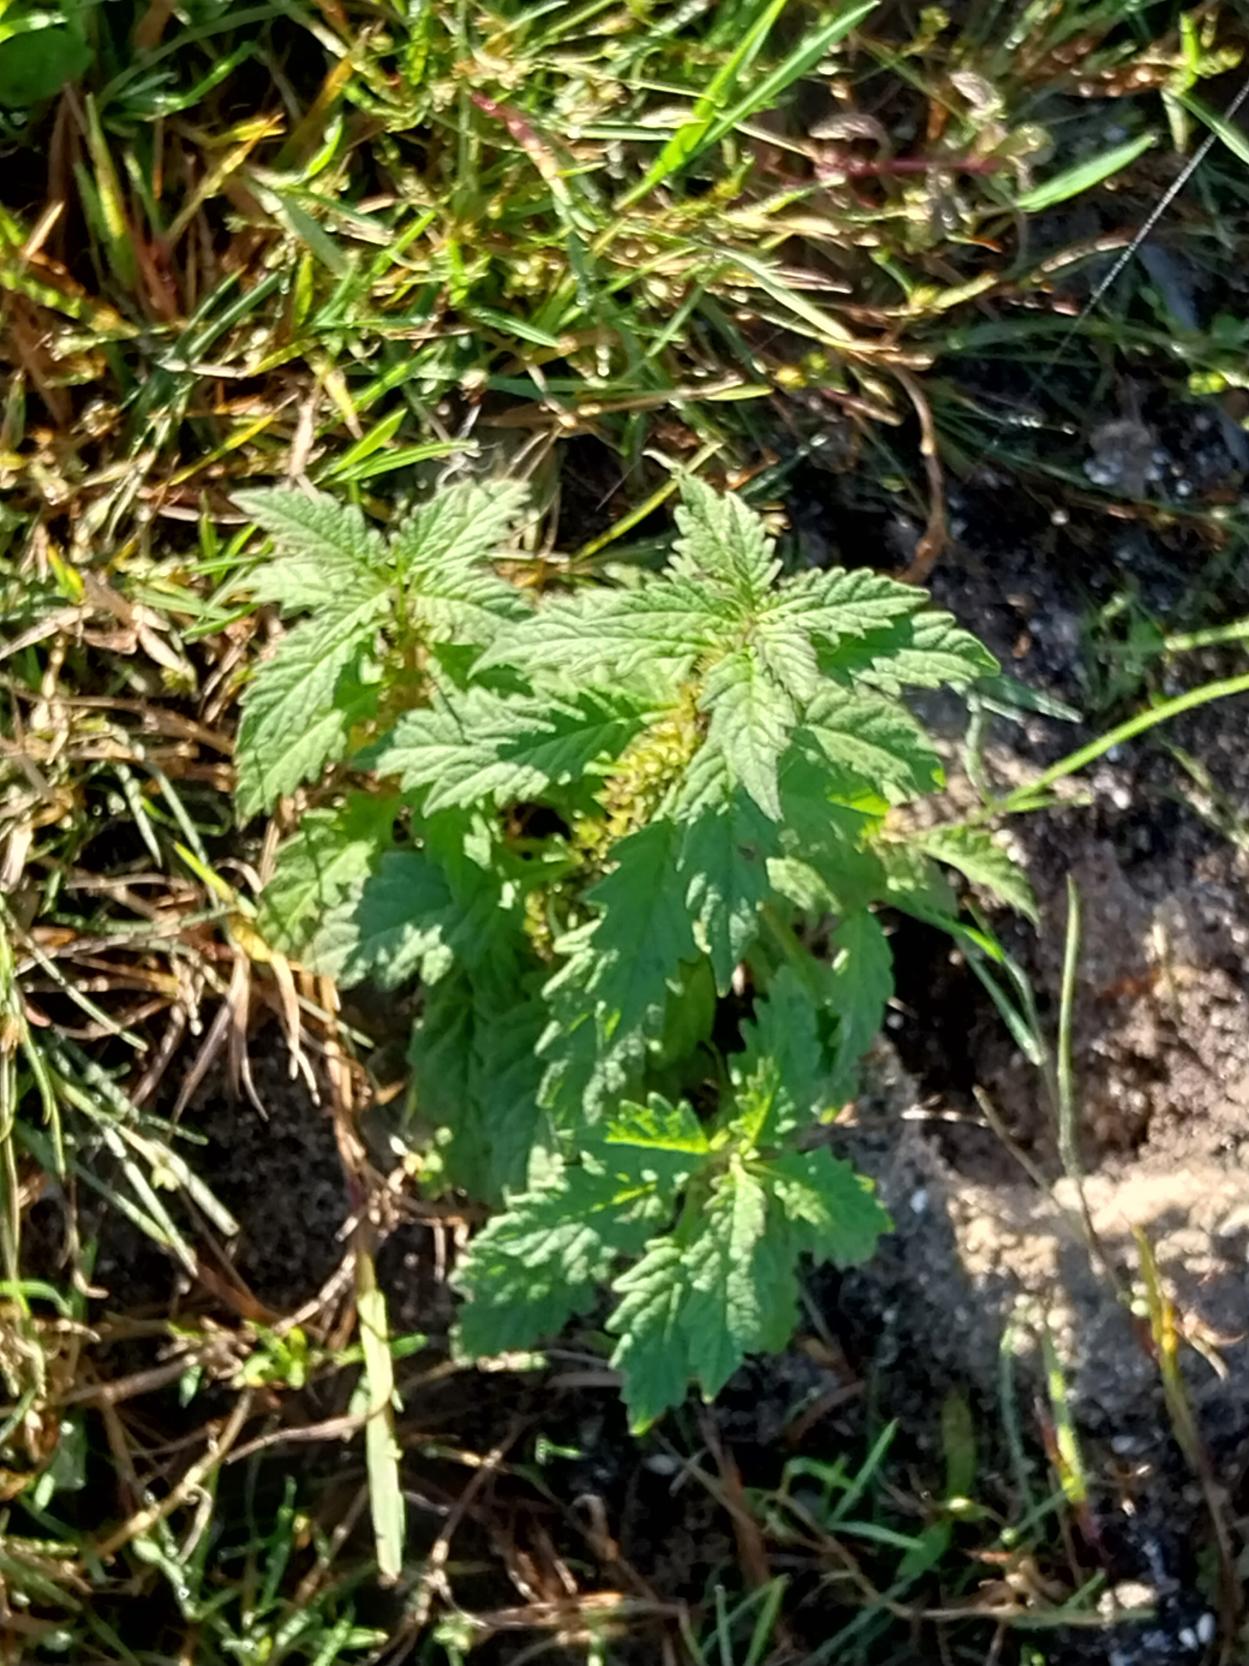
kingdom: Plantae
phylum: Tracheophyta
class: Magnoliopsida
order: Lamiales
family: Lamiaceae
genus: Lycopus
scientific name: Lycopus europaeus
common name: Sværtevæld
